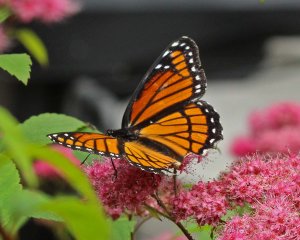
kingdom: Animalia
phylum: Arthropoda
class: Insecta
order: Lepidoptera
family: Nymphalidae
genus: Limenitis
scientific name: Limenitis archippus
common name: Viceroy
